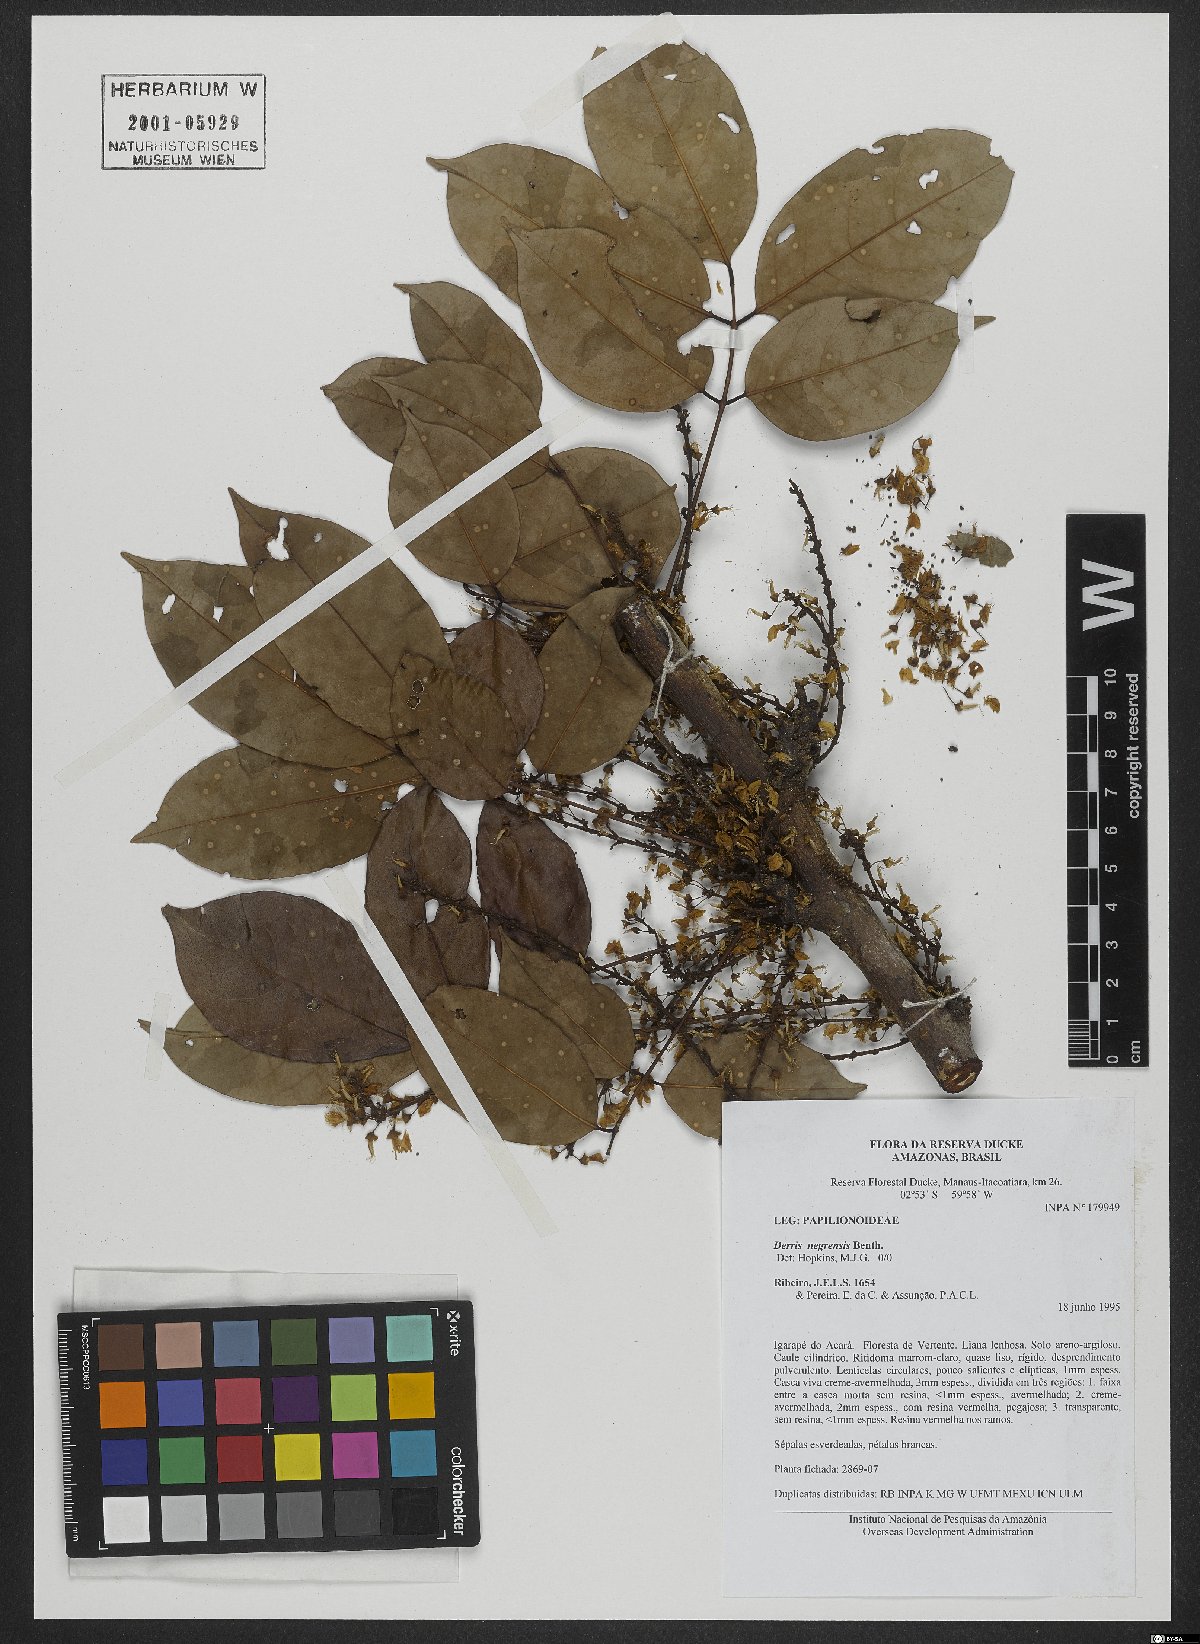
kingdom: Plantae
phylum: Tracheophyta
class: Magnoliopsida
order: Fabales
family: Fabaceae
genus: Deguelia
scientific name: Deguelia negrensis
